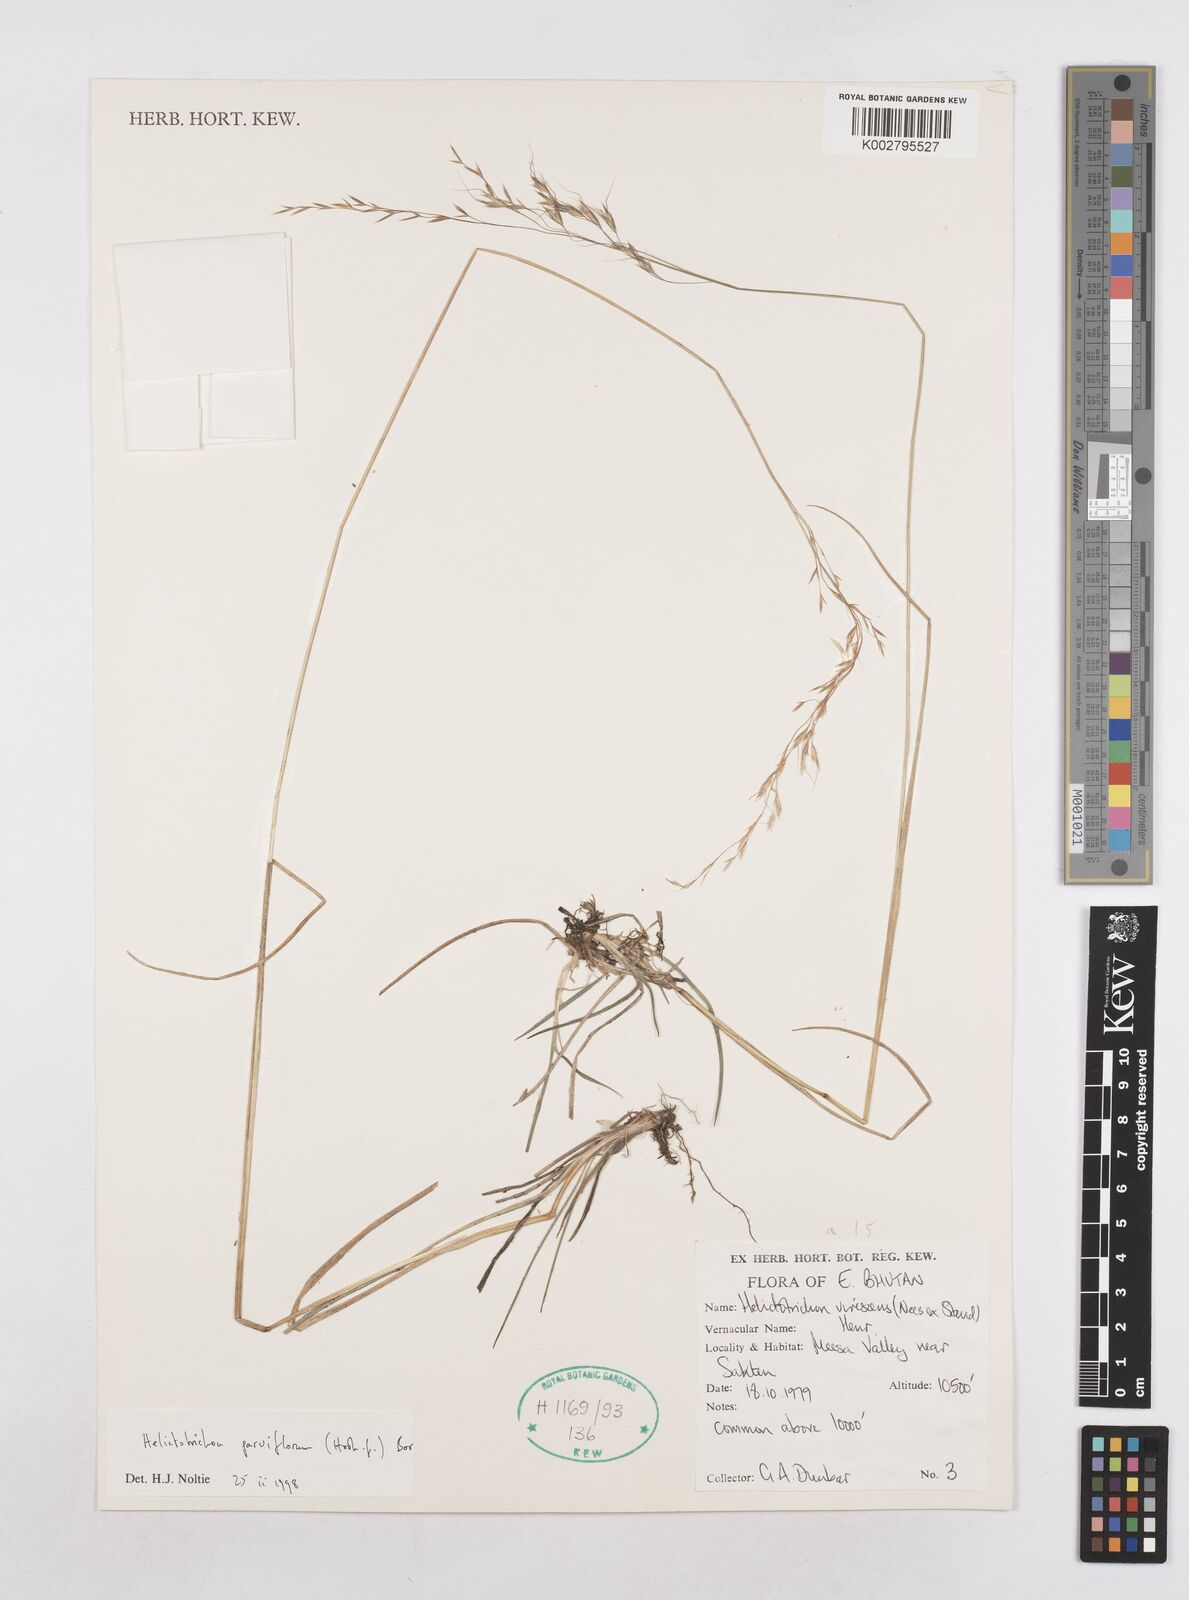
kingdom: Plantae
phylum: Tracheophyta
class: Liliopsida
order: Poales
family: Poaceae
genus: Trisetopsis
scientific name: Trisetopsis junghuhnii
